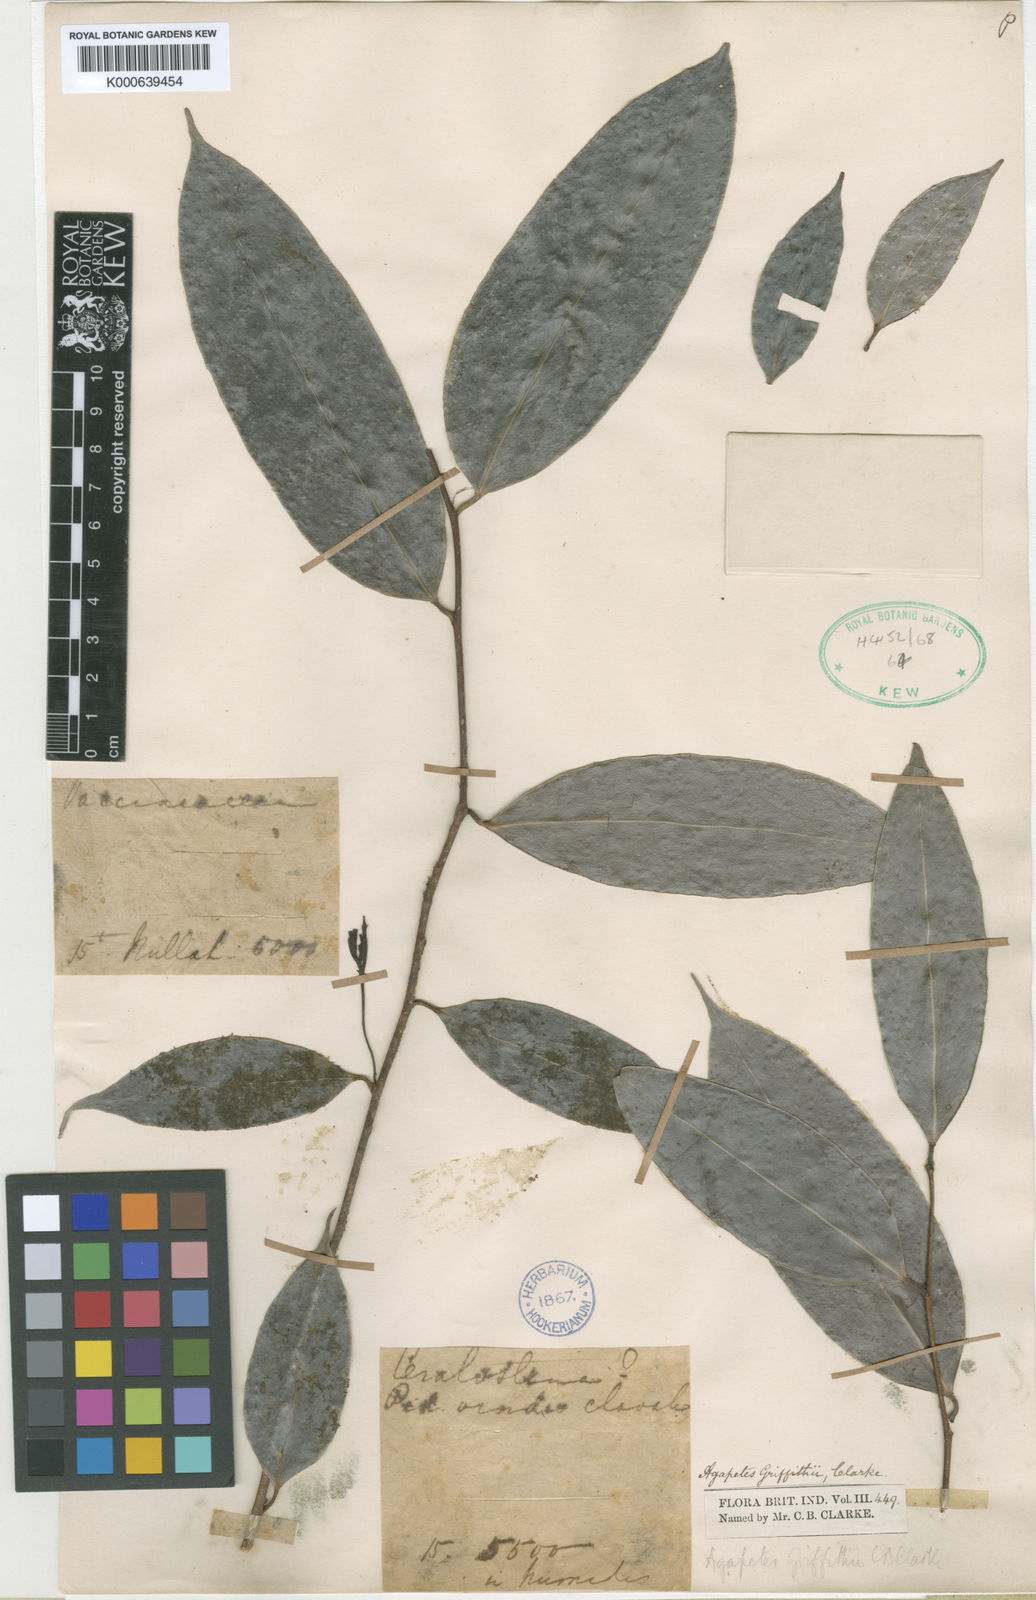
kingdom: Plantae
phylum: Tracheophyta
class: Magnoliopsida
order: Ericales
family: Ericaceae
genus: Agapetes
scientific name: Agapetes griffithii
